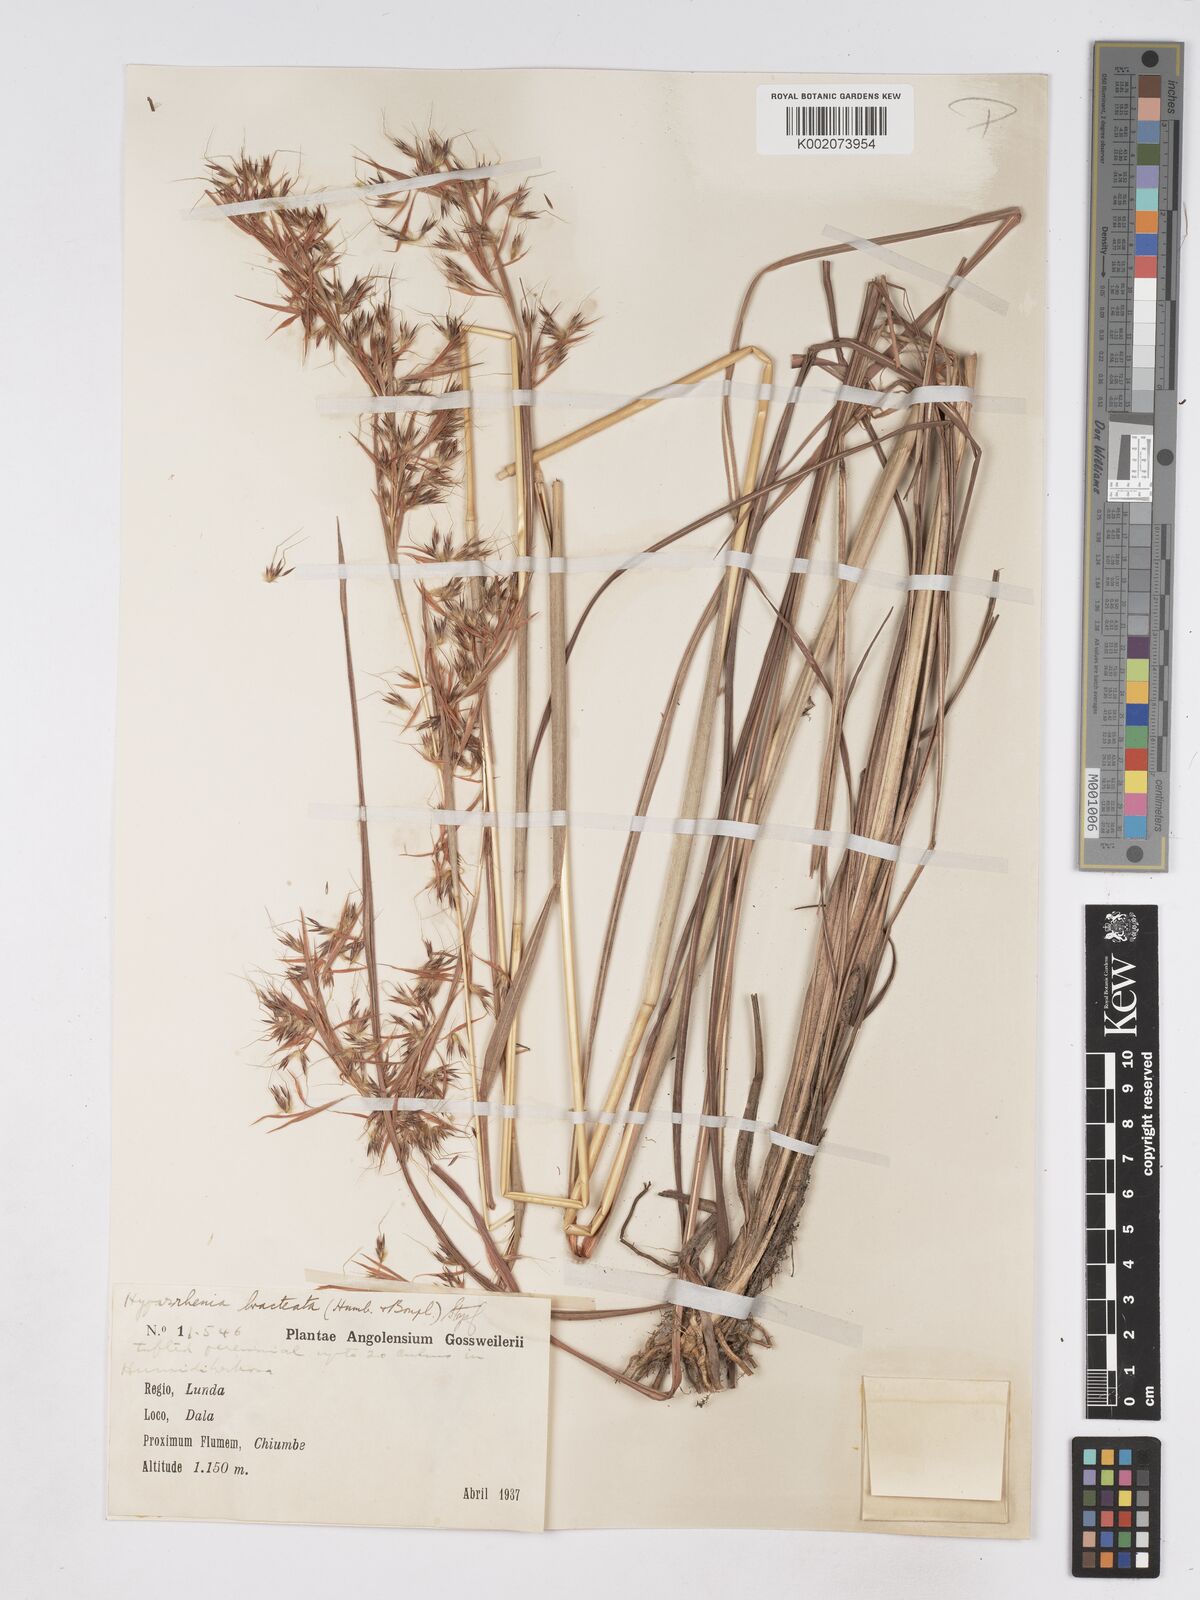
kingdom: Plantae
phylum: Tracheophyta
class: Liliopsida
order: Poales
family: Poaceae
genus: Hyparrhenia
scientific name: Hyparrhenia bracteata
